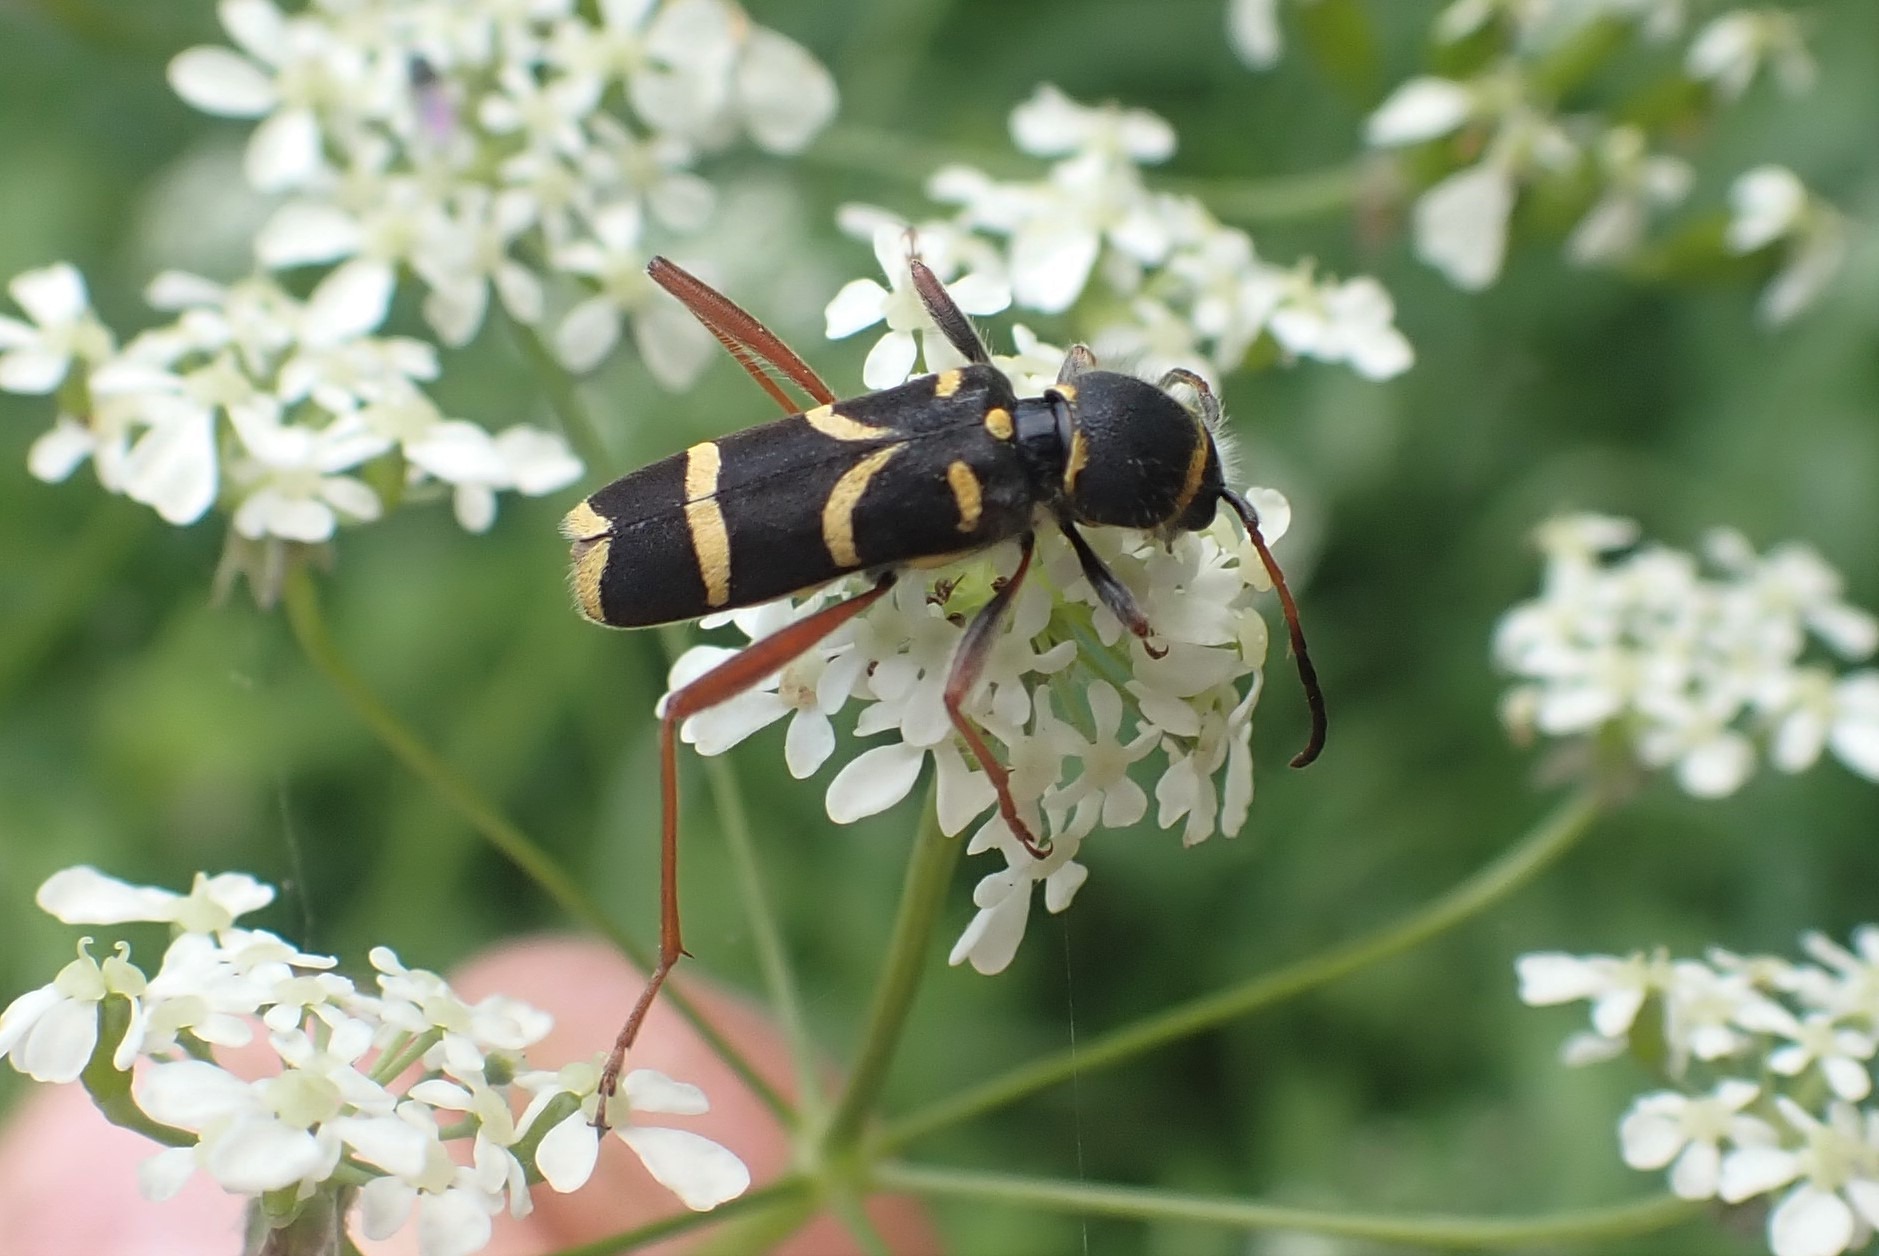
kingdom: Animalia
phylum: Arthropoda
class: Insecta
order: Coleoptera
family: Cerambycidae
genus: Clytus
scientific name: Clytus arietis
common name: Lille hvepsebuk
